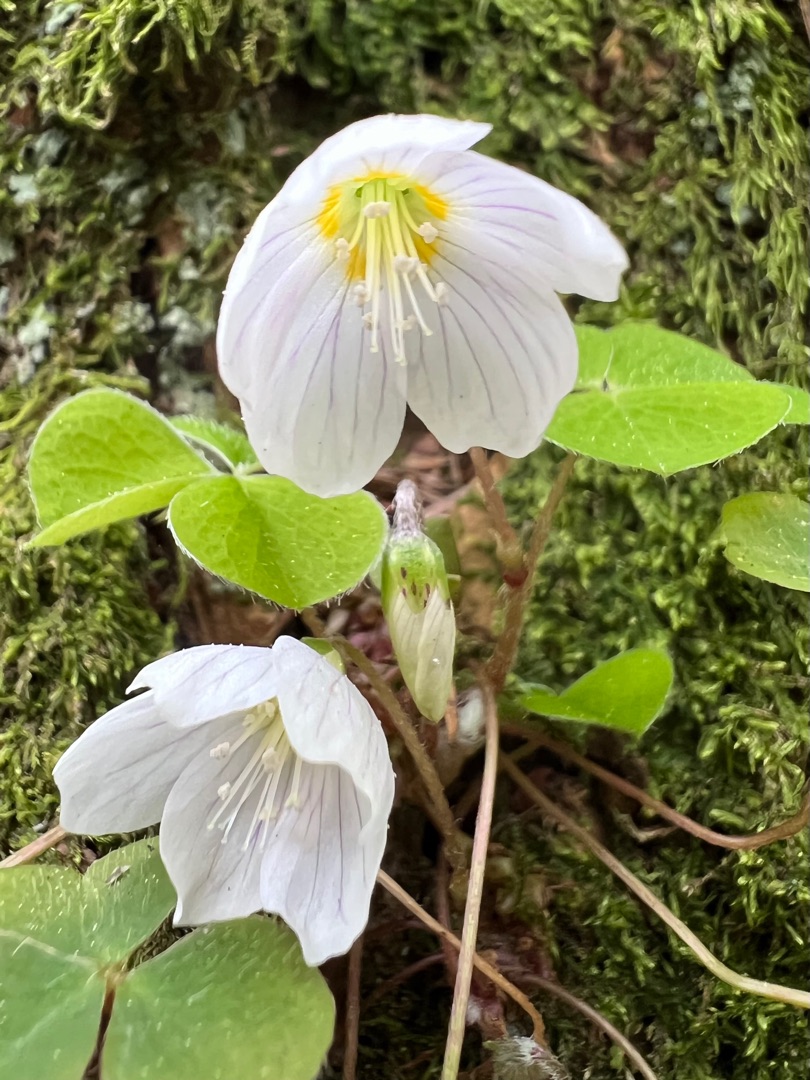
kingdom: Plantae
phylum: Tracheophyta
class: Magnoliopsida
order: Oxalidales
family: Oxalidaceae
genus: Oxalis
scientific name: Oxalis acetosella
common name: Skovsyre
